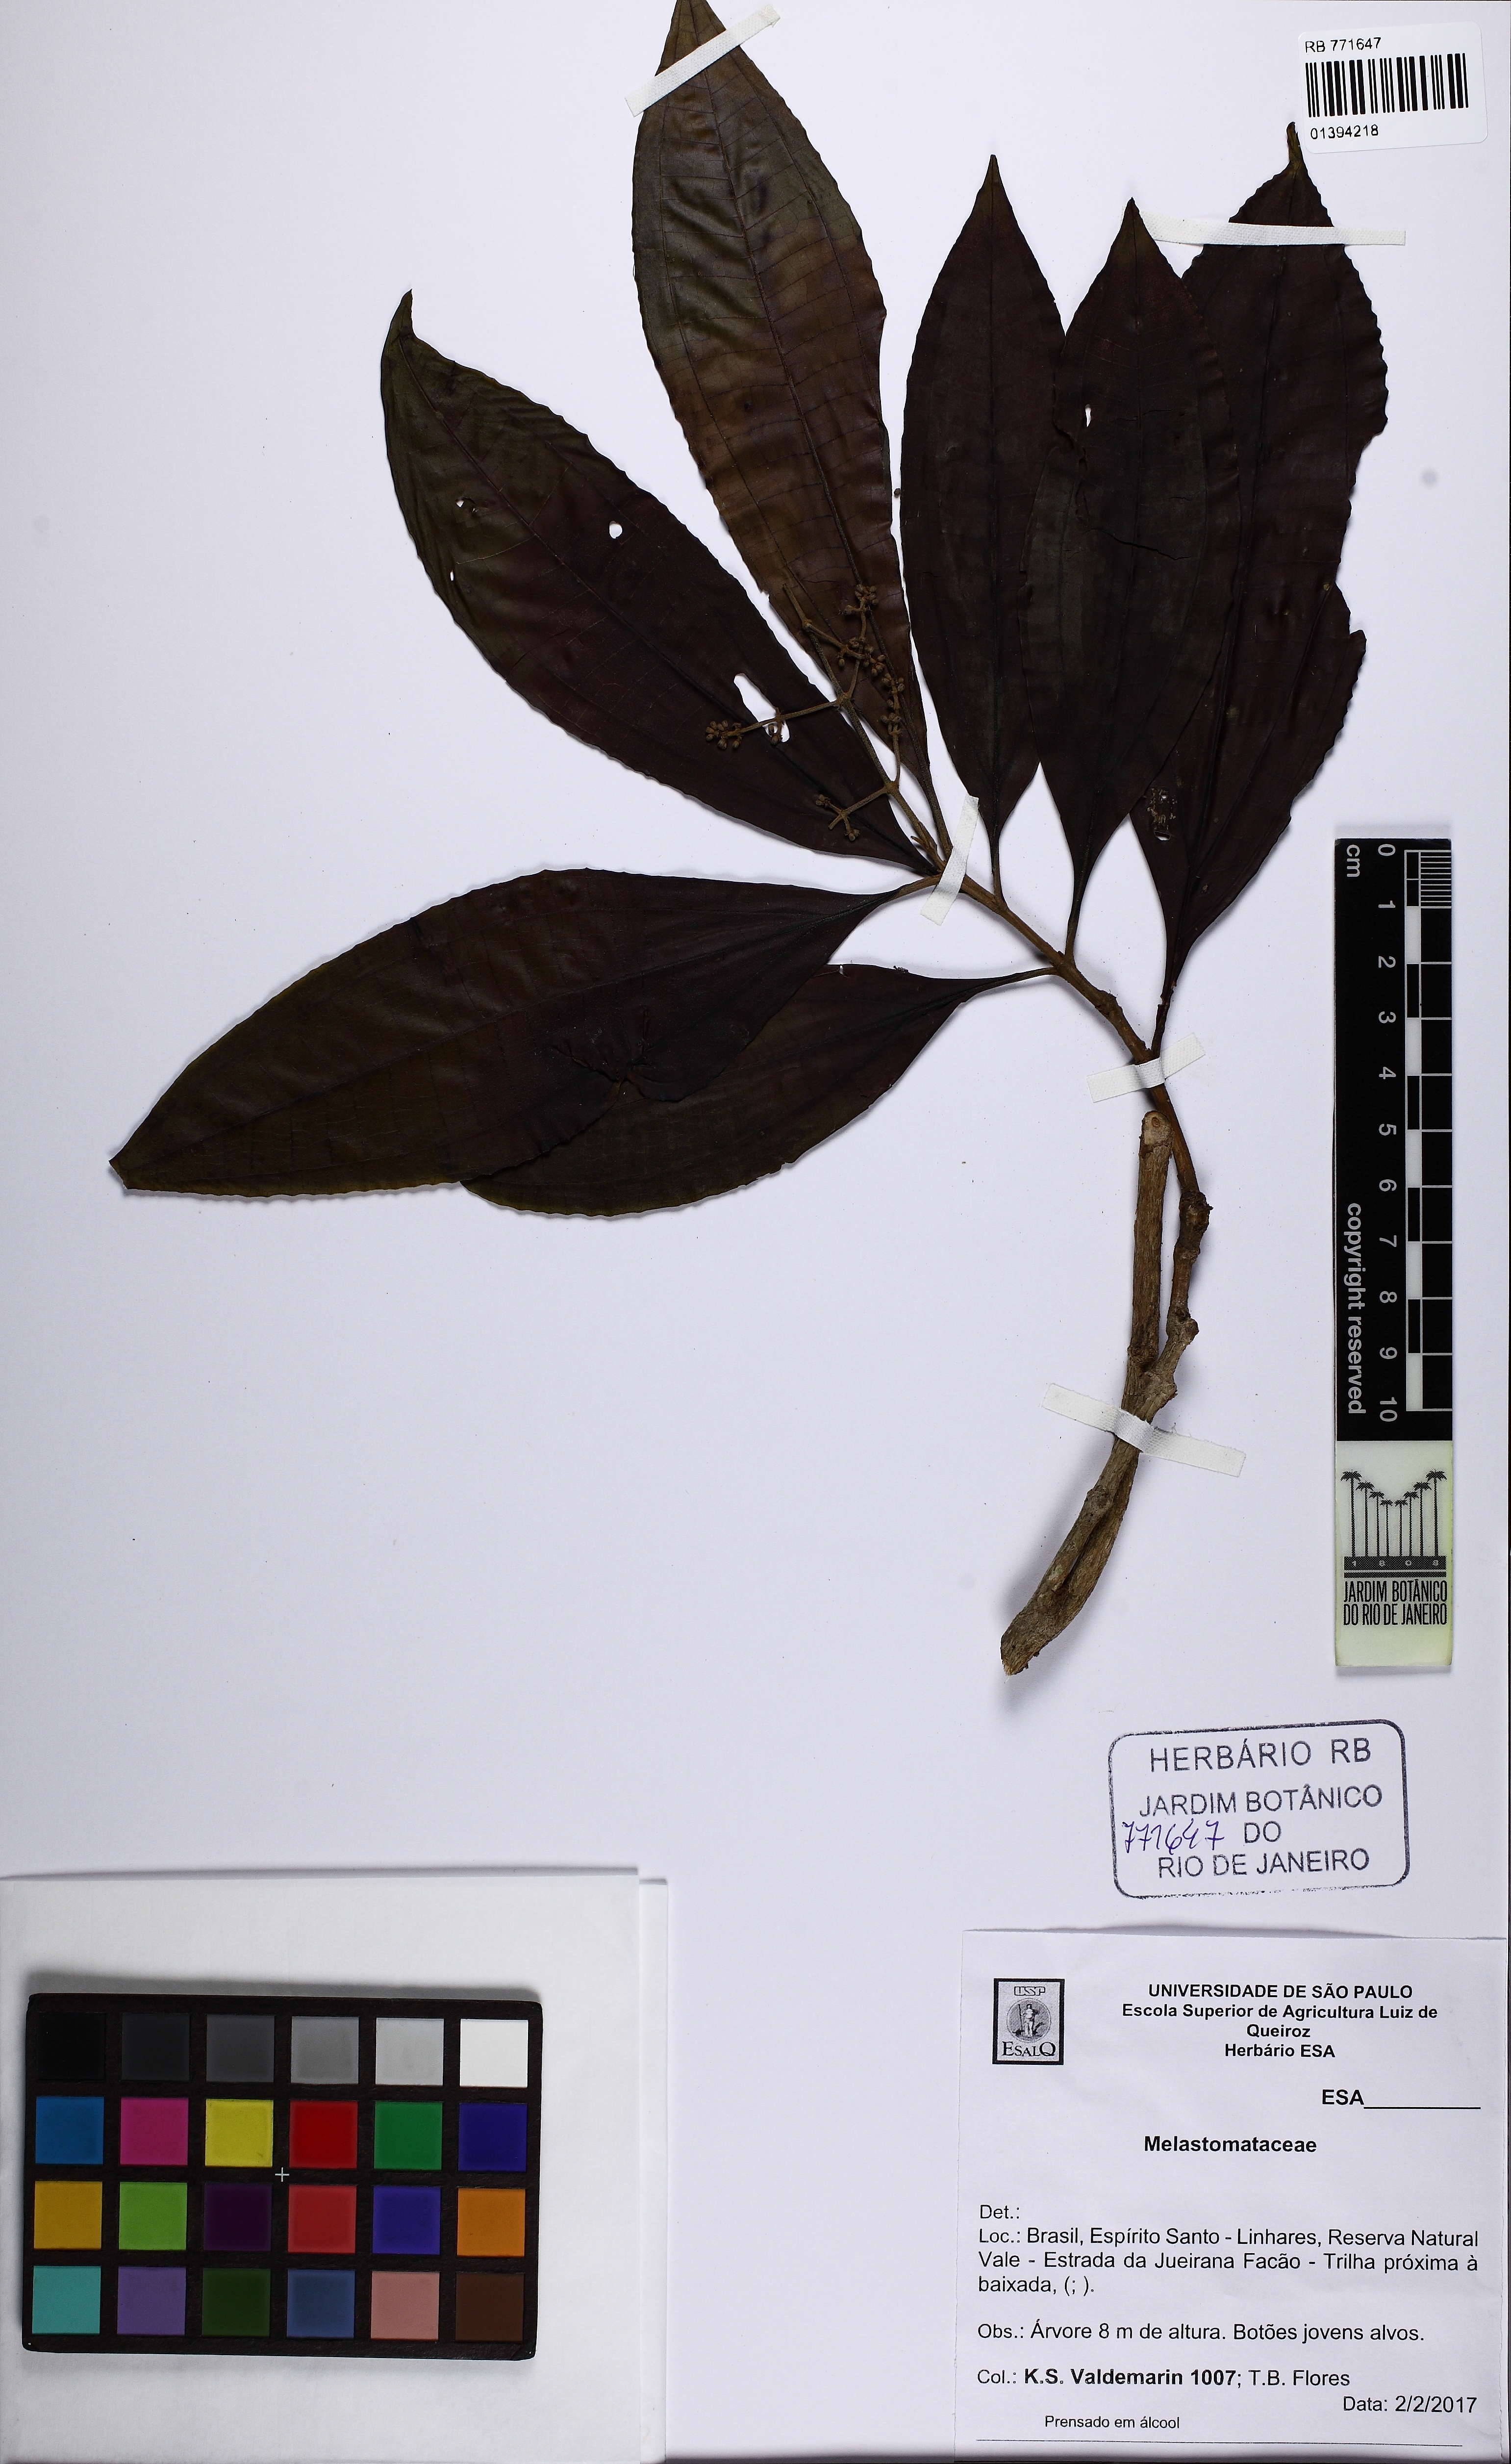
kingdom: Plantae
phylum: Tracheophyta
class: Magnoliopsida
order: Myrtales
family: Melastomataceae
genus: Miconia
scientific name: Miconia prasina
